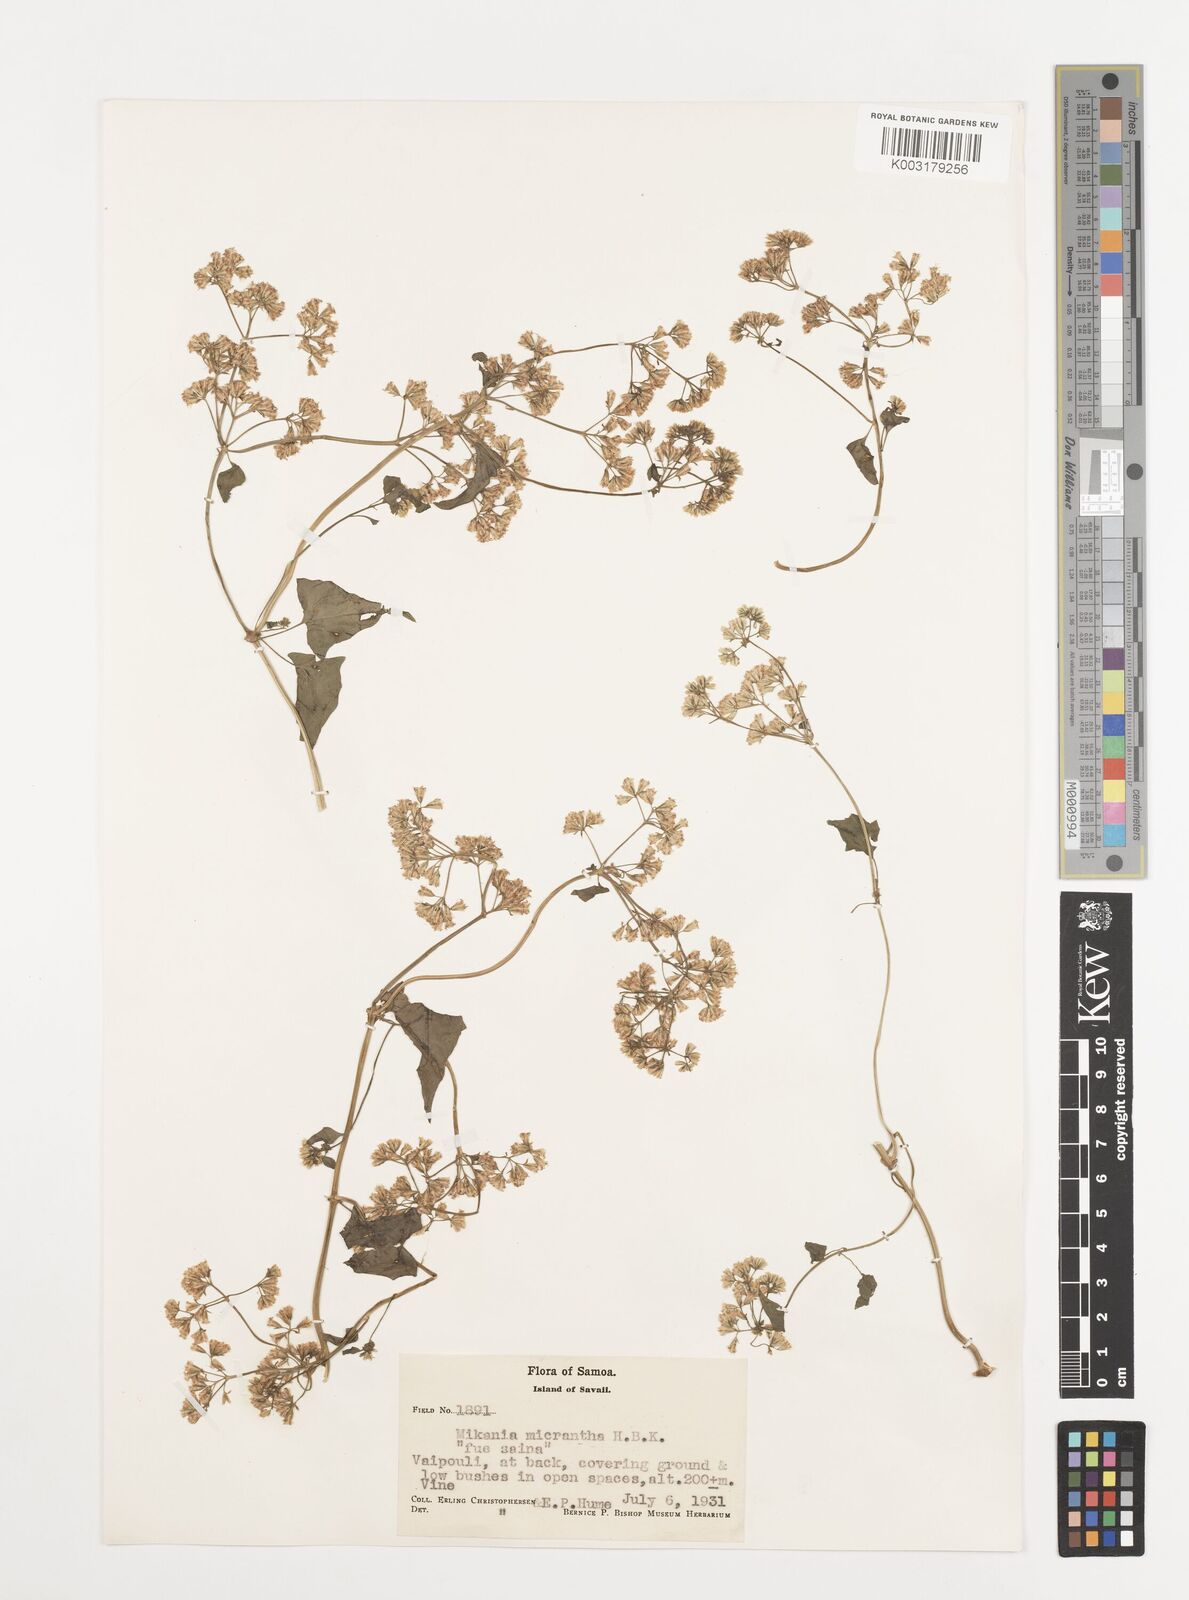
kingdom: Plantae
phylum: Tracheophyta
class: Magnoliopsida
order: Asterales
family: Asteraceae
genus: Mikania
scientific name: Mikania micrantha
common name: Mile-a-minute
